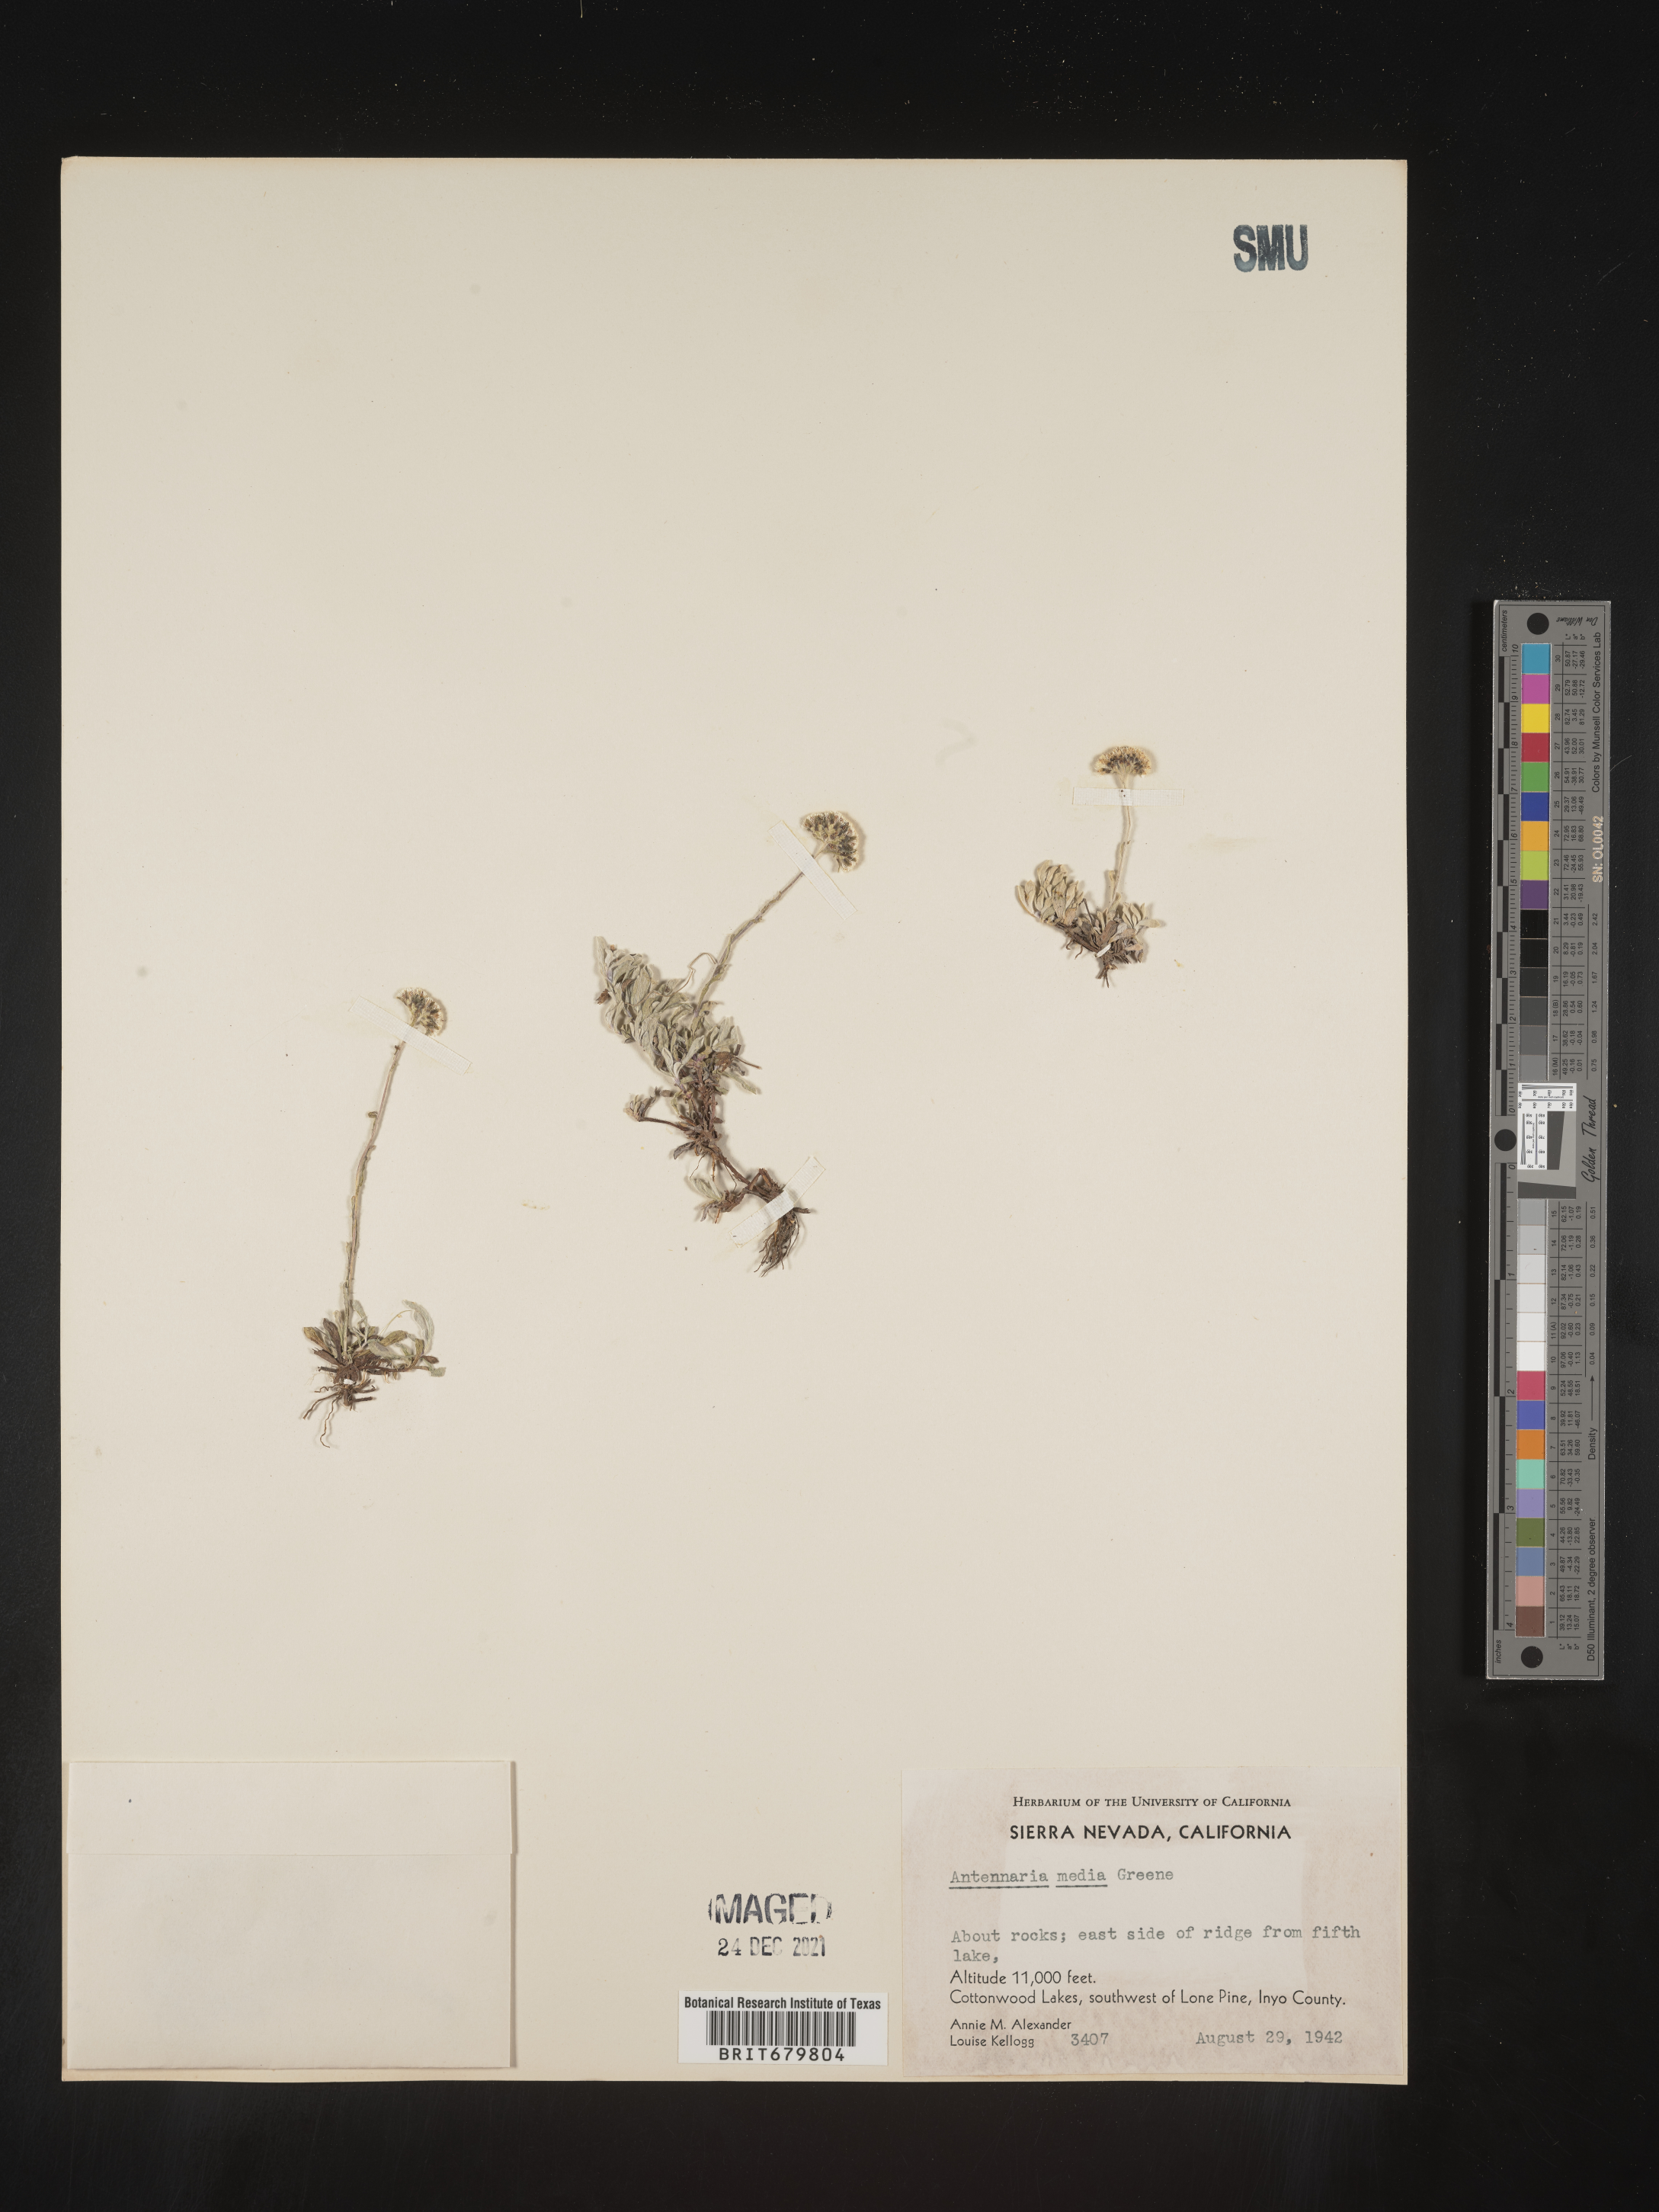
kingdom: Plantae
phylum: Tracheophyta
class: Magnoliopsida
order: Asterales
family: Asteraceae
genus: Antennaria
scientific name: Antennaria media
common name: Rocky mountain pussytoes
